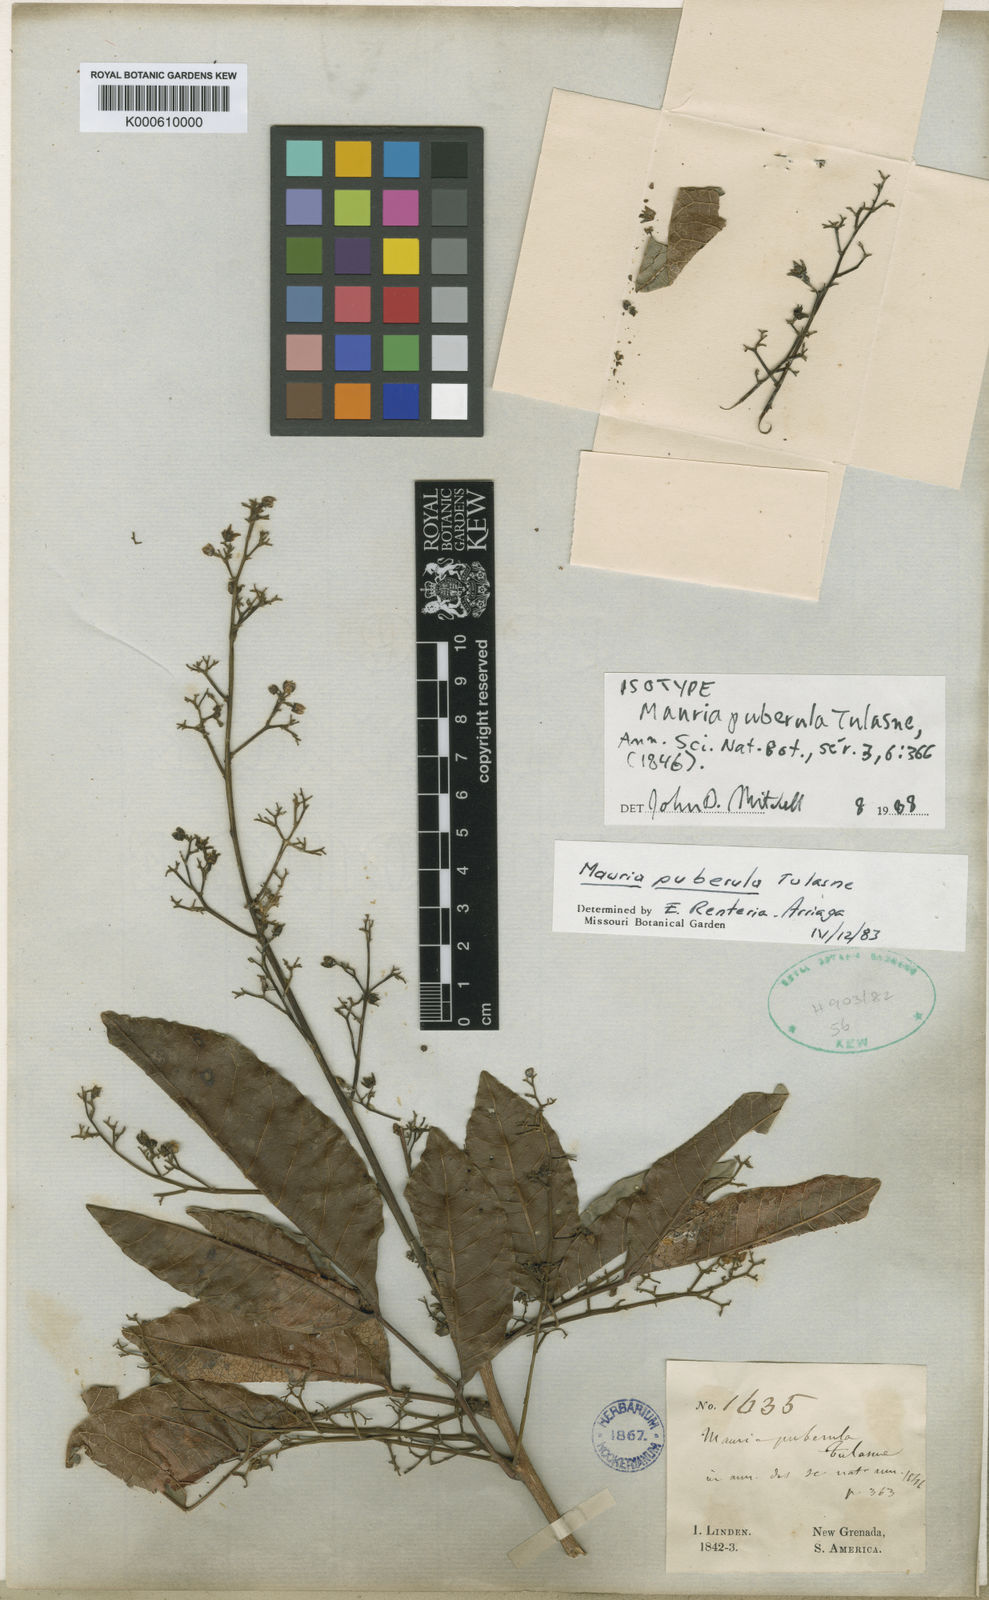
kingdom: Plantae
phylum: Tracheophyta
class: Magnoliopsida
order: Sapindales
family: Anacardiaceae
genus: Mauria
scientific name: Mauria heterophylla
